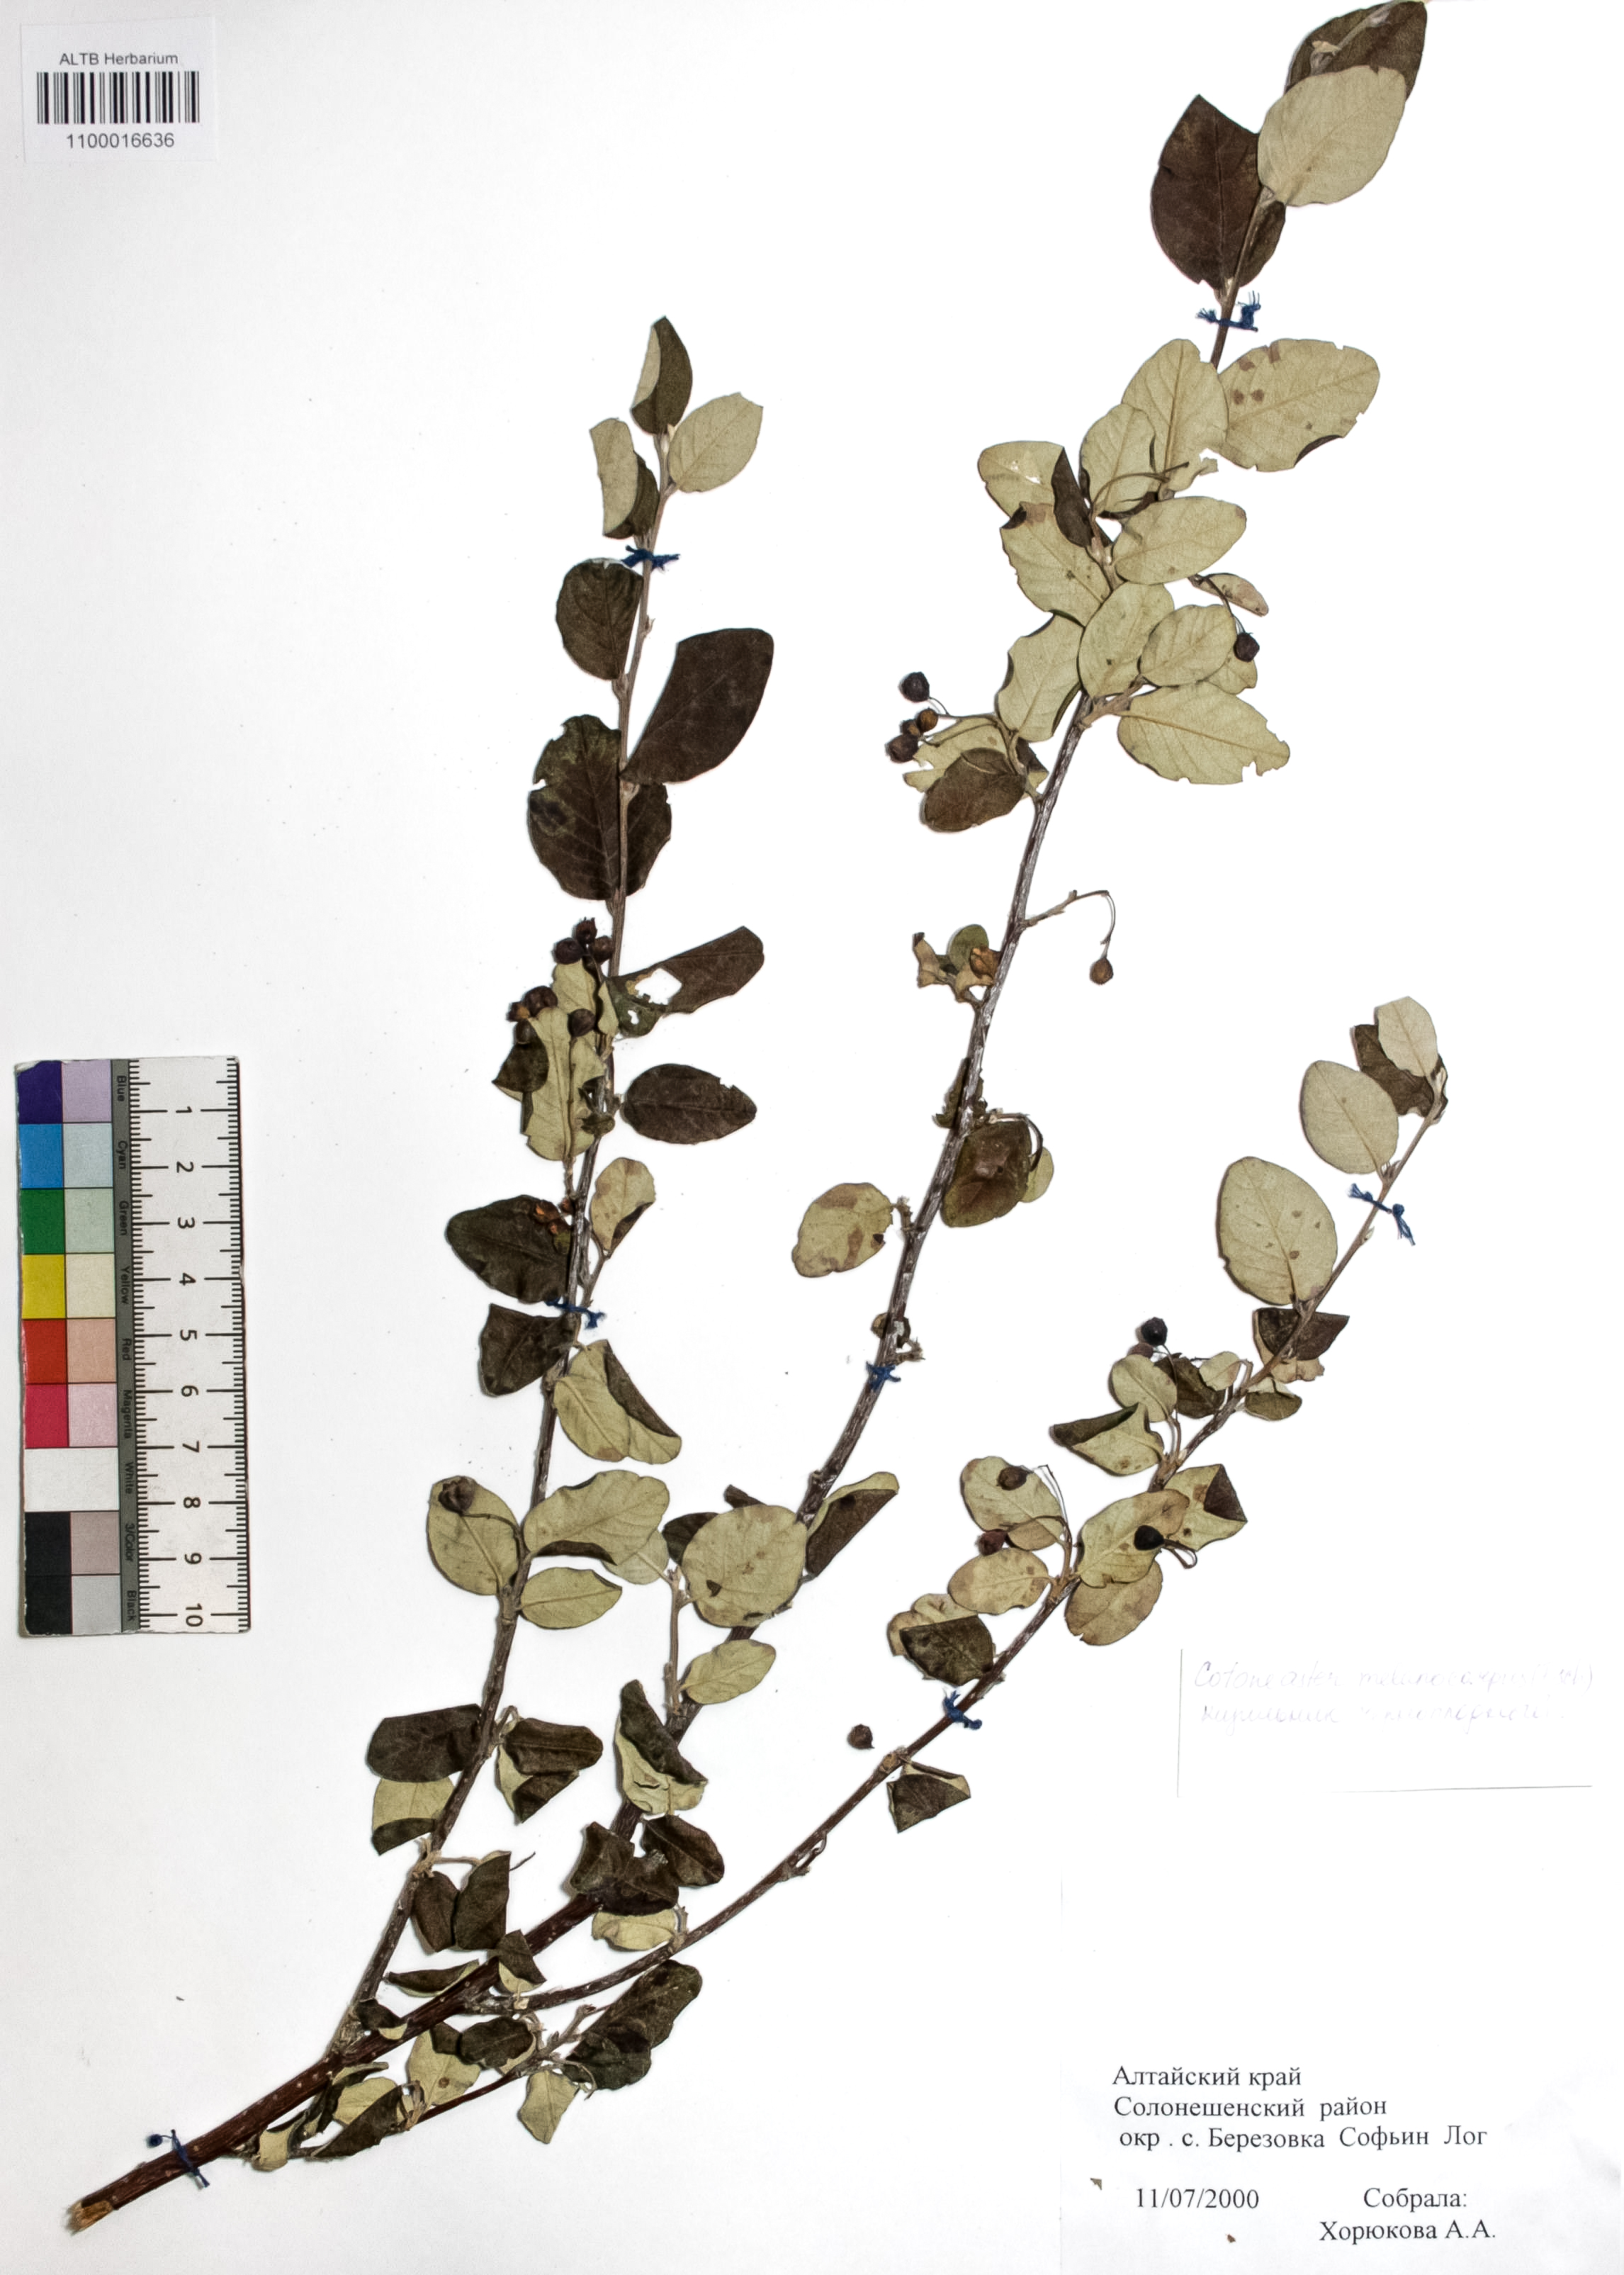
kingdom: Plantae
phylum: Tracheophyta
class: Magnoliopsida
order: Rosales
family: Rosaceae
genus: Cotoneaster
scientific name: Cotoneaster niger
